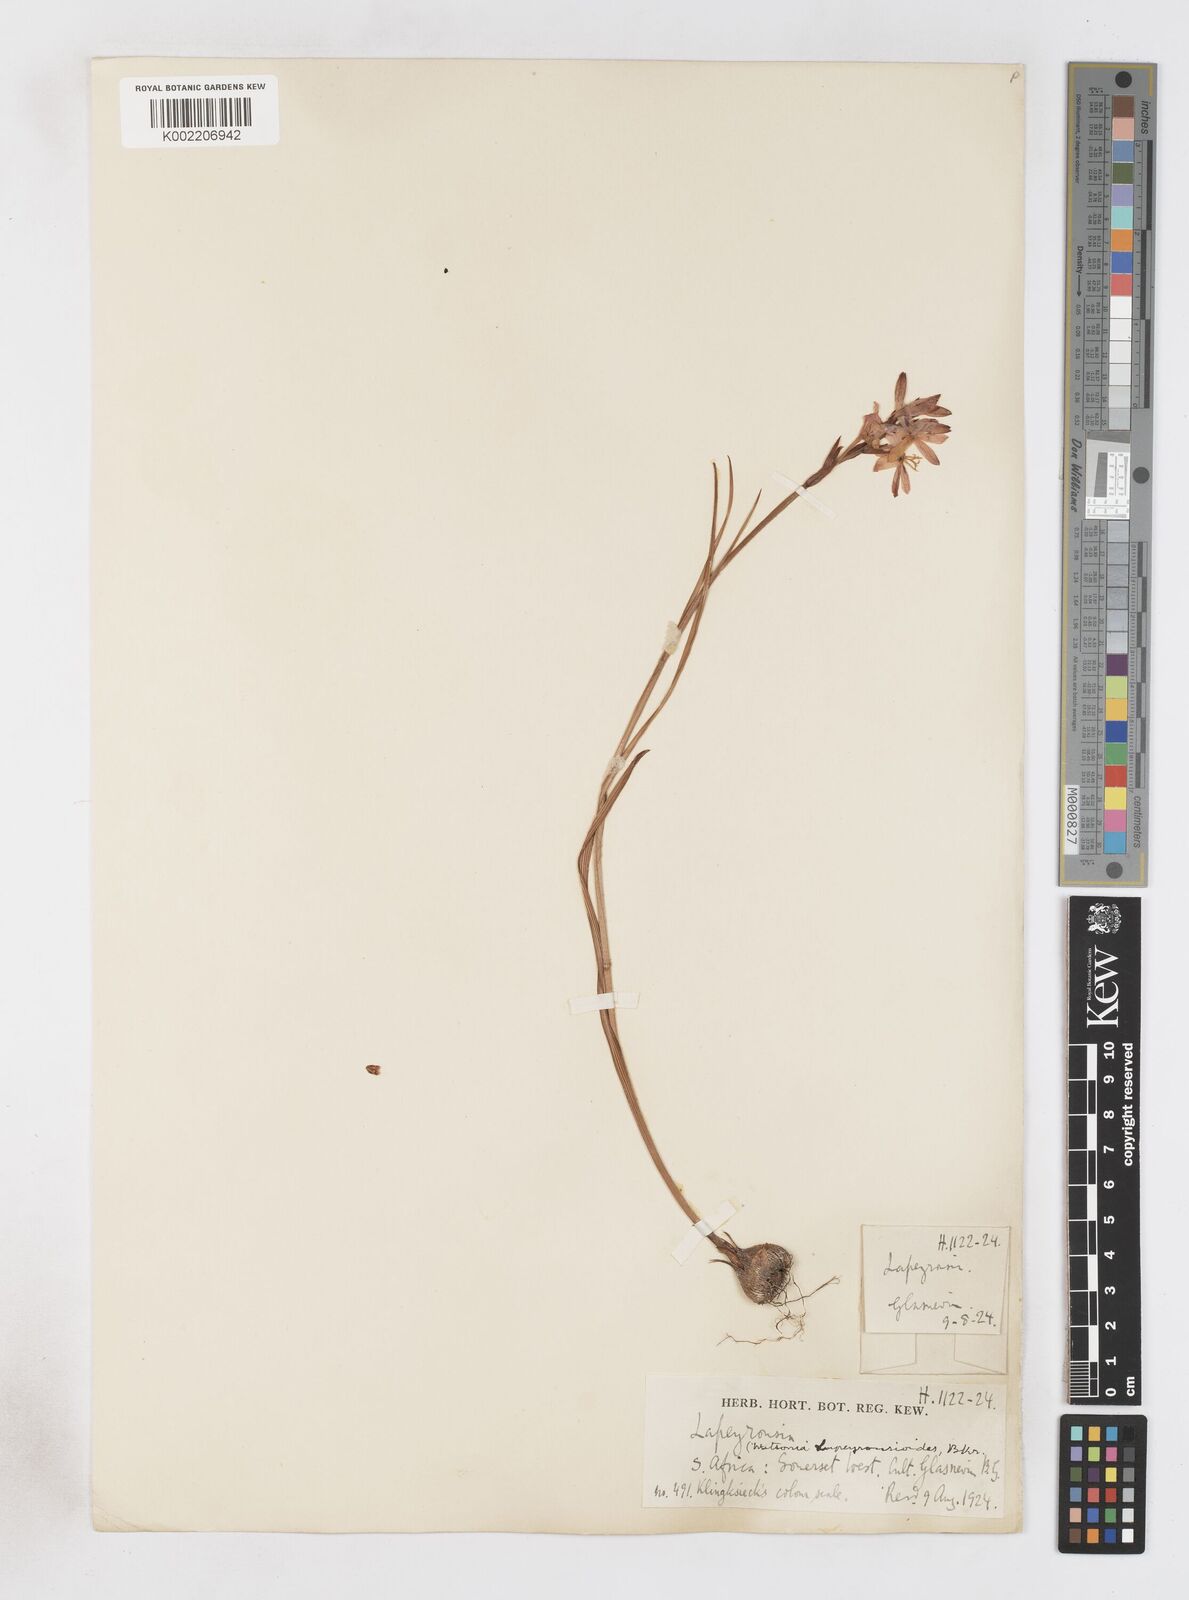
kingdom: Plantae
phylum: Tracheophyta
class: Liliopsida
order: Asparagales
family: Iridaceae
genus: Thereianthus
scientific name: Thereianthus spicatus
